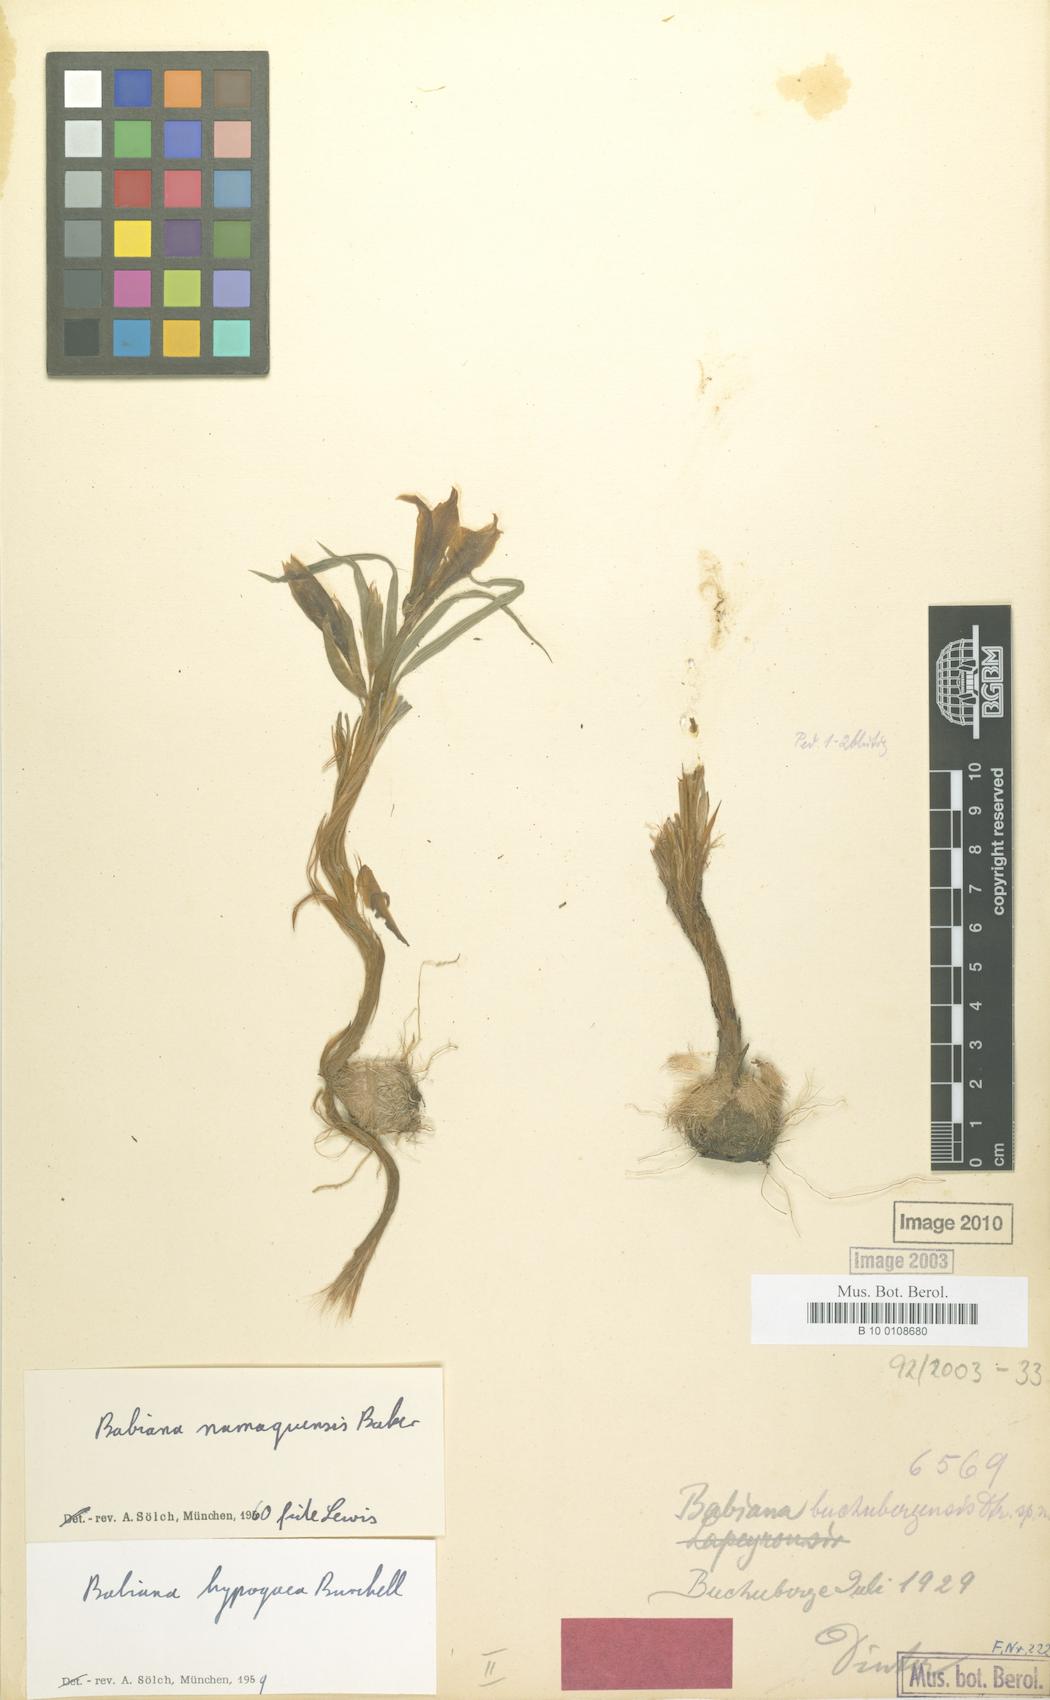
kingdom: Plantae
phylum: Tracheophyta
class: Liliopsida
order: Asparagales
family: Iridaceae
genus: Babiana
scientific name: Babiana namaquensis
